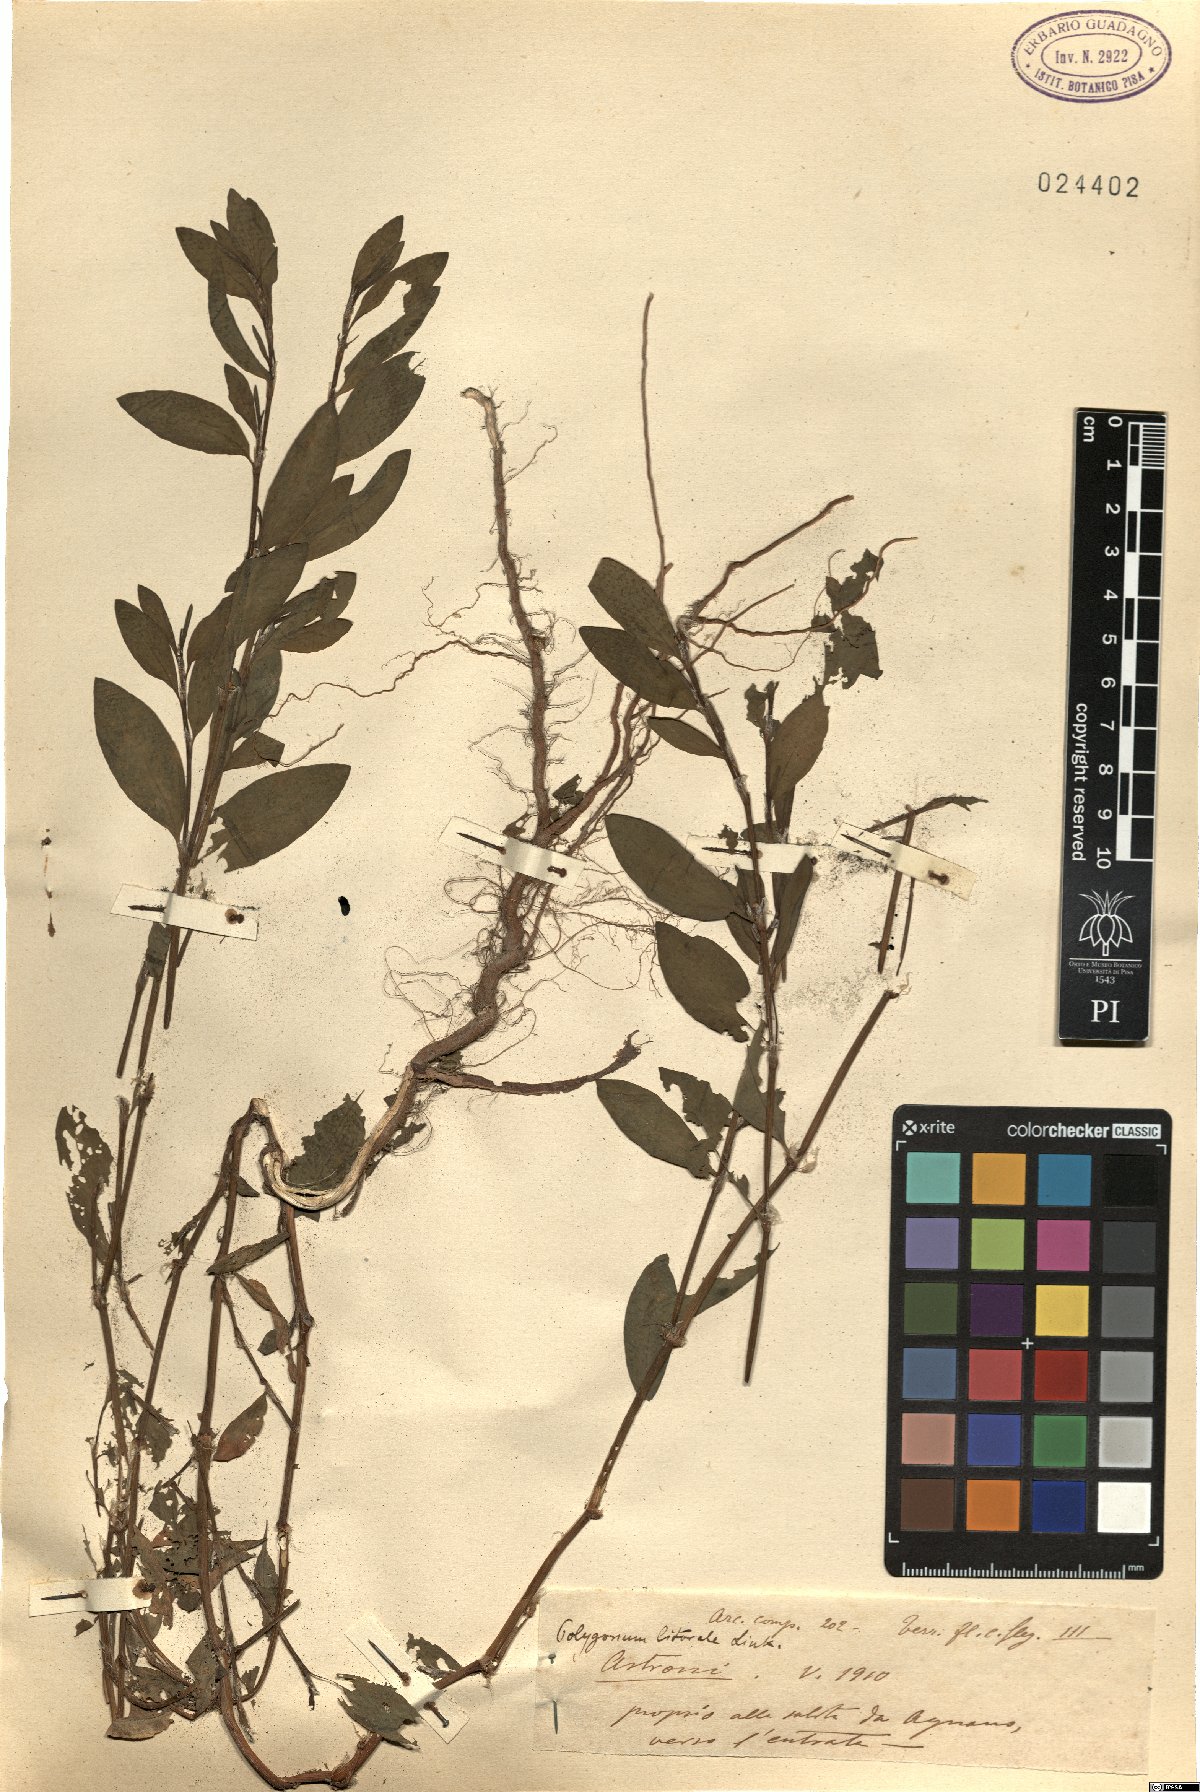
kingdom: Plantae
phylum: Tracheophyta
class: Magnoliopsida
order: Caryophyllales
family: Polygonaceae
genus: Polygonum
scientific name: Polygonum aviculare
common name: Prostrate knotweed
